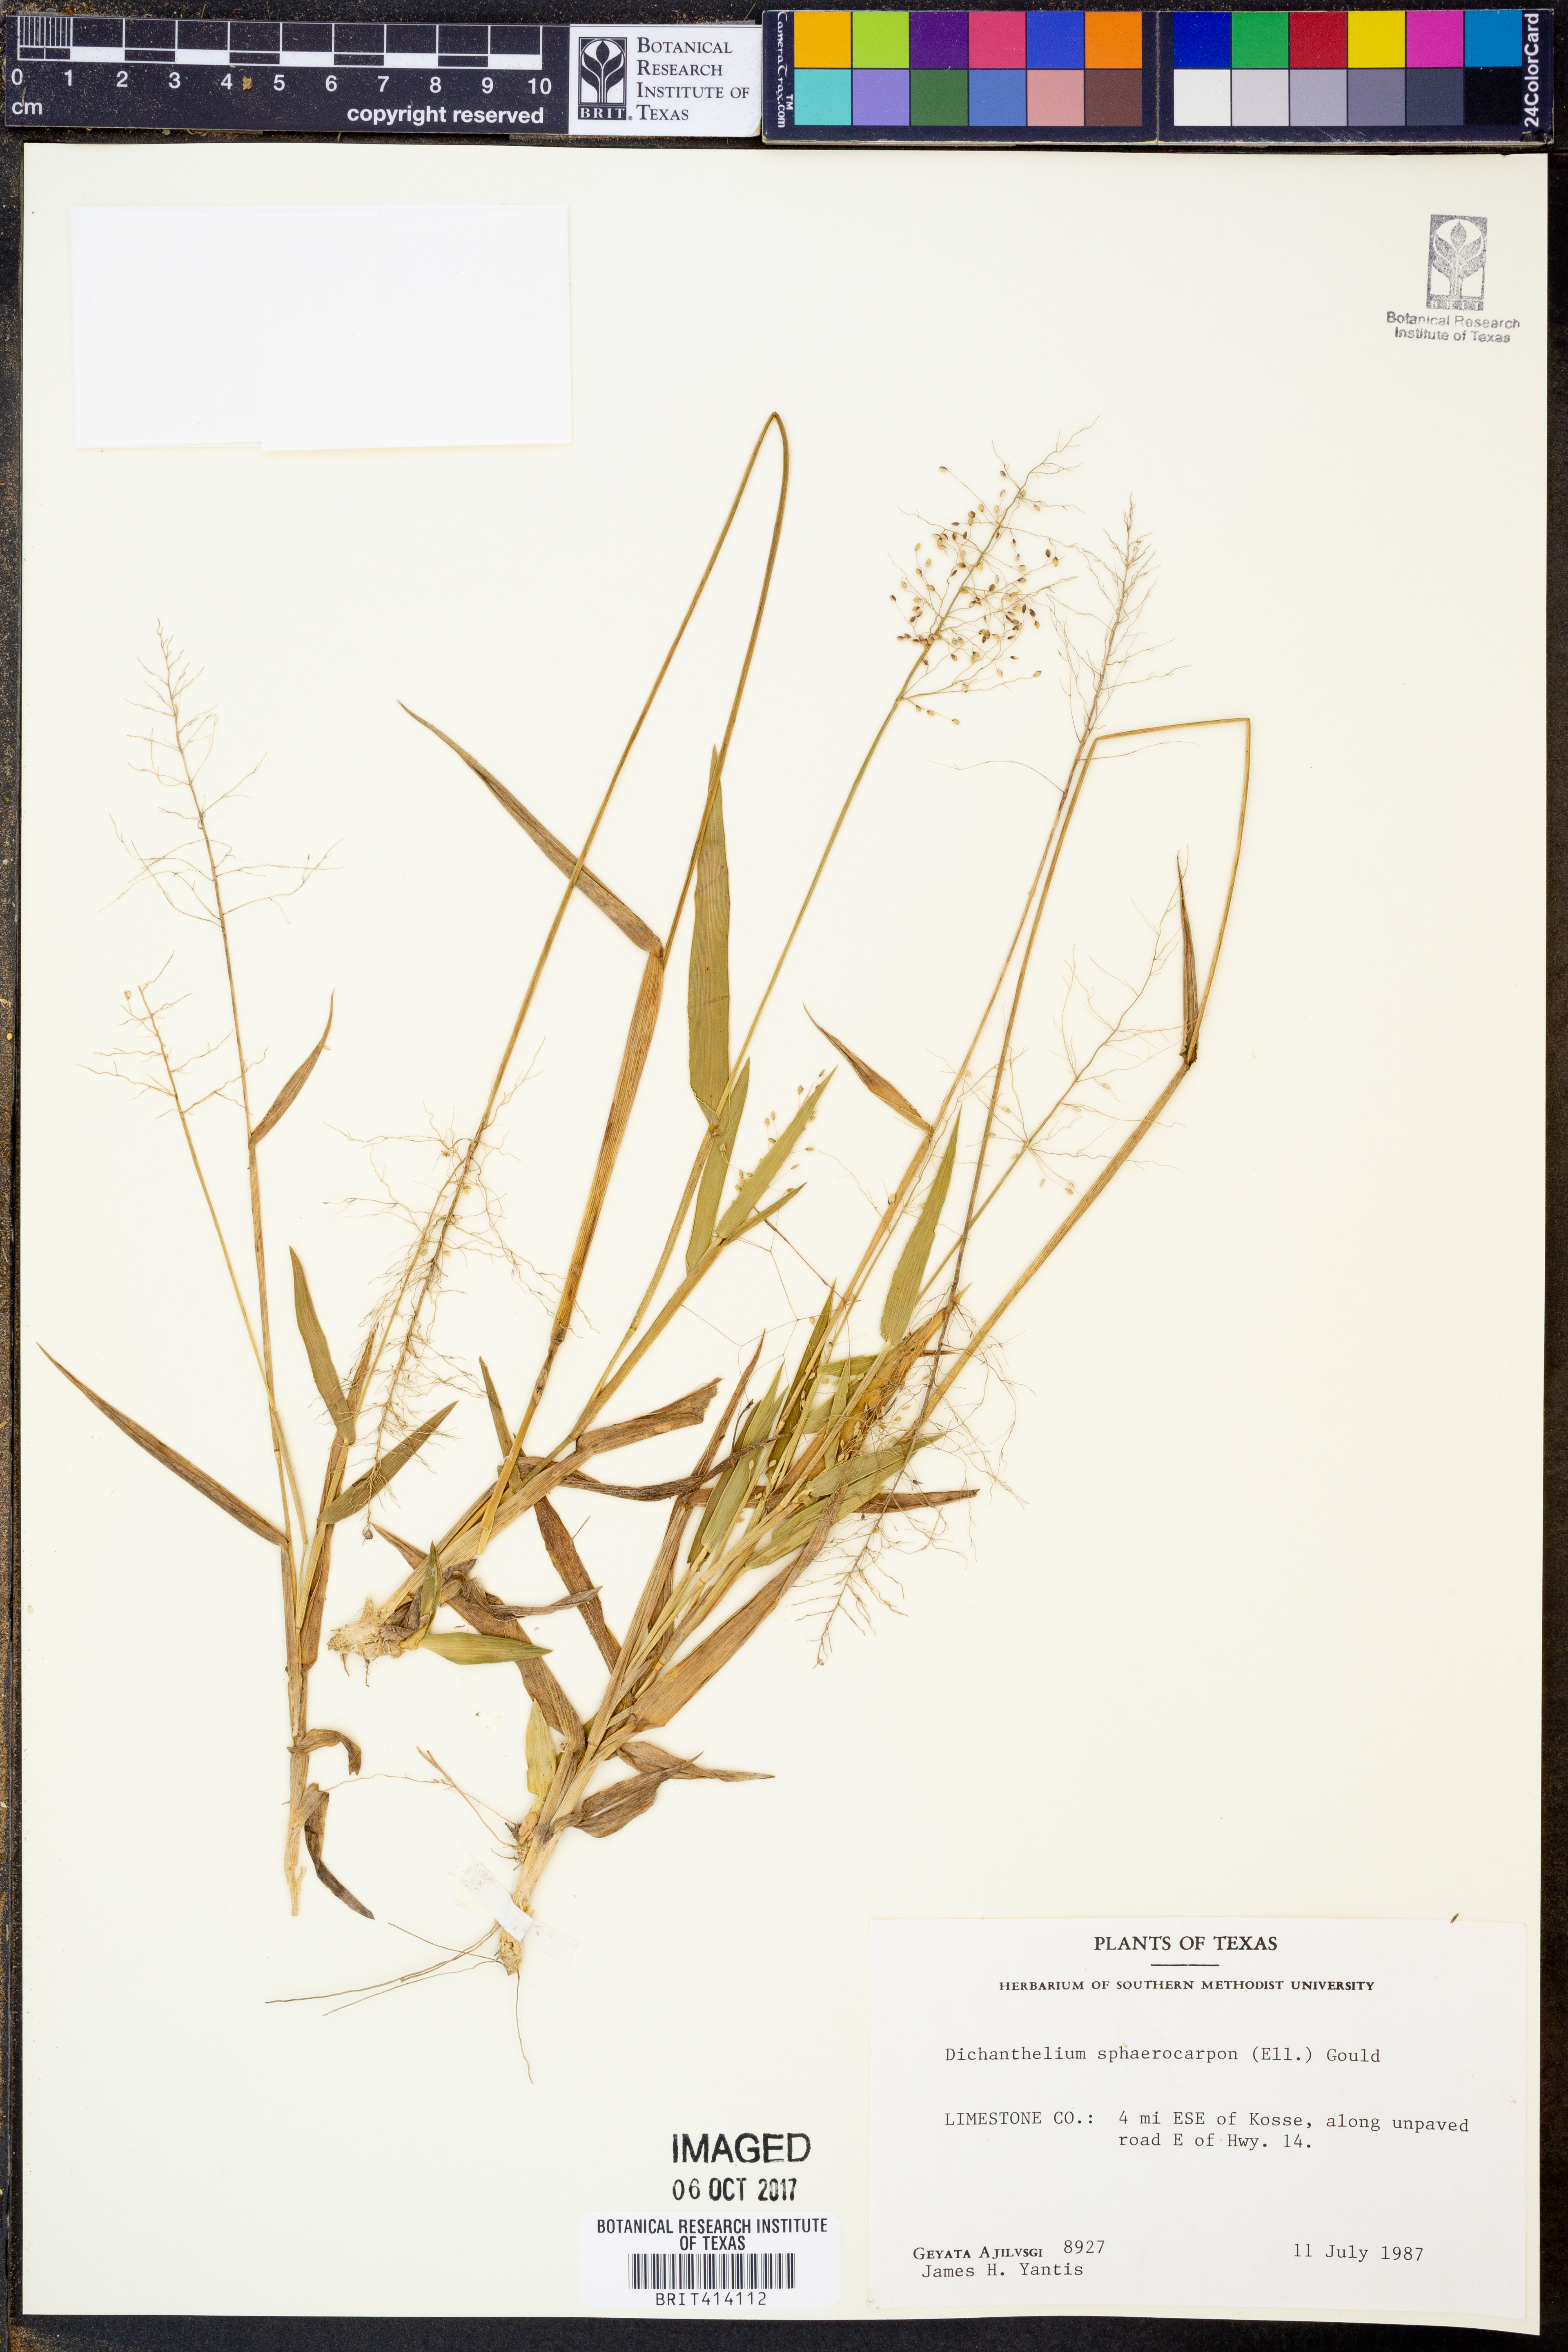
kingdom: Plantae
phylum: Tracheophyta
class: Liliopsida
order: Poales
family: Poaceae
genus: Dichanthelium
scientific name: Dichanthelium sphaerocarpon
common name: Round-fruited panicgrass
